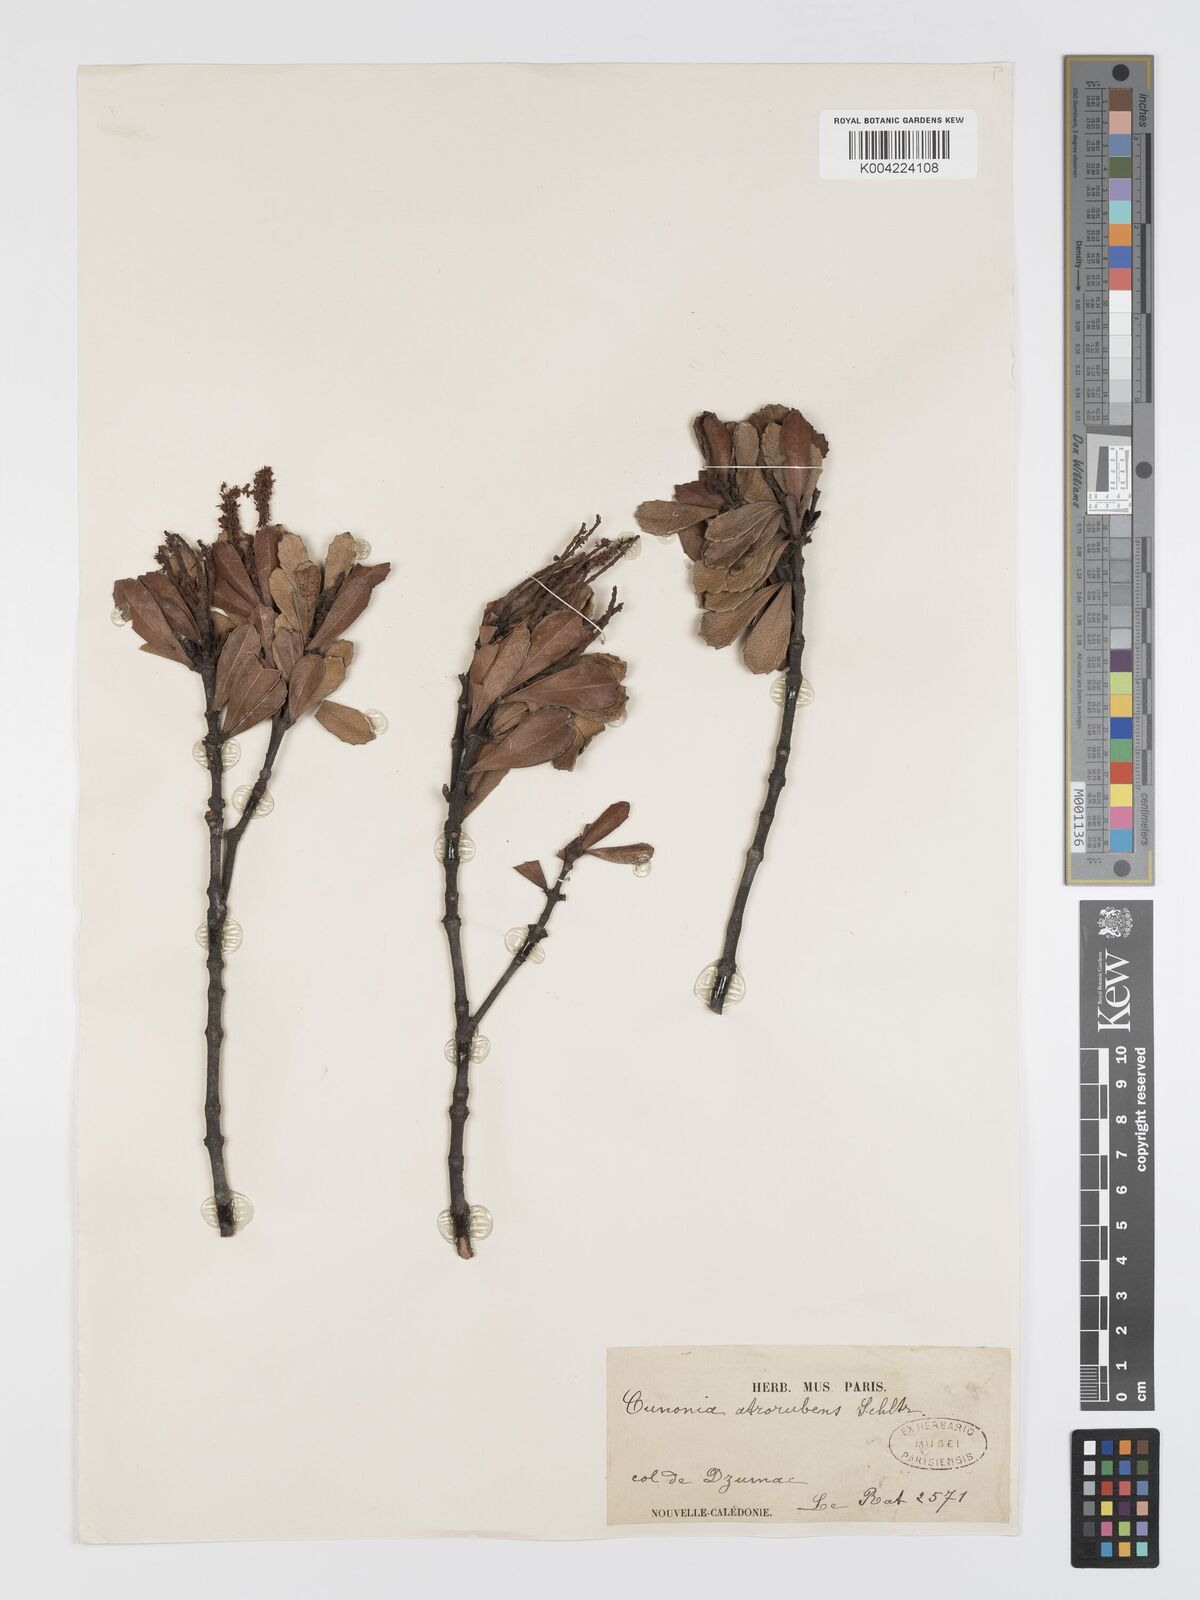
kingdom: Plantae
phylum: Tracheophyta
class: Magnoliopsida
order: Oxalidales
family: Cunoniaceae
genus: Cunonia
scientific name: Cunonia atrorubens
